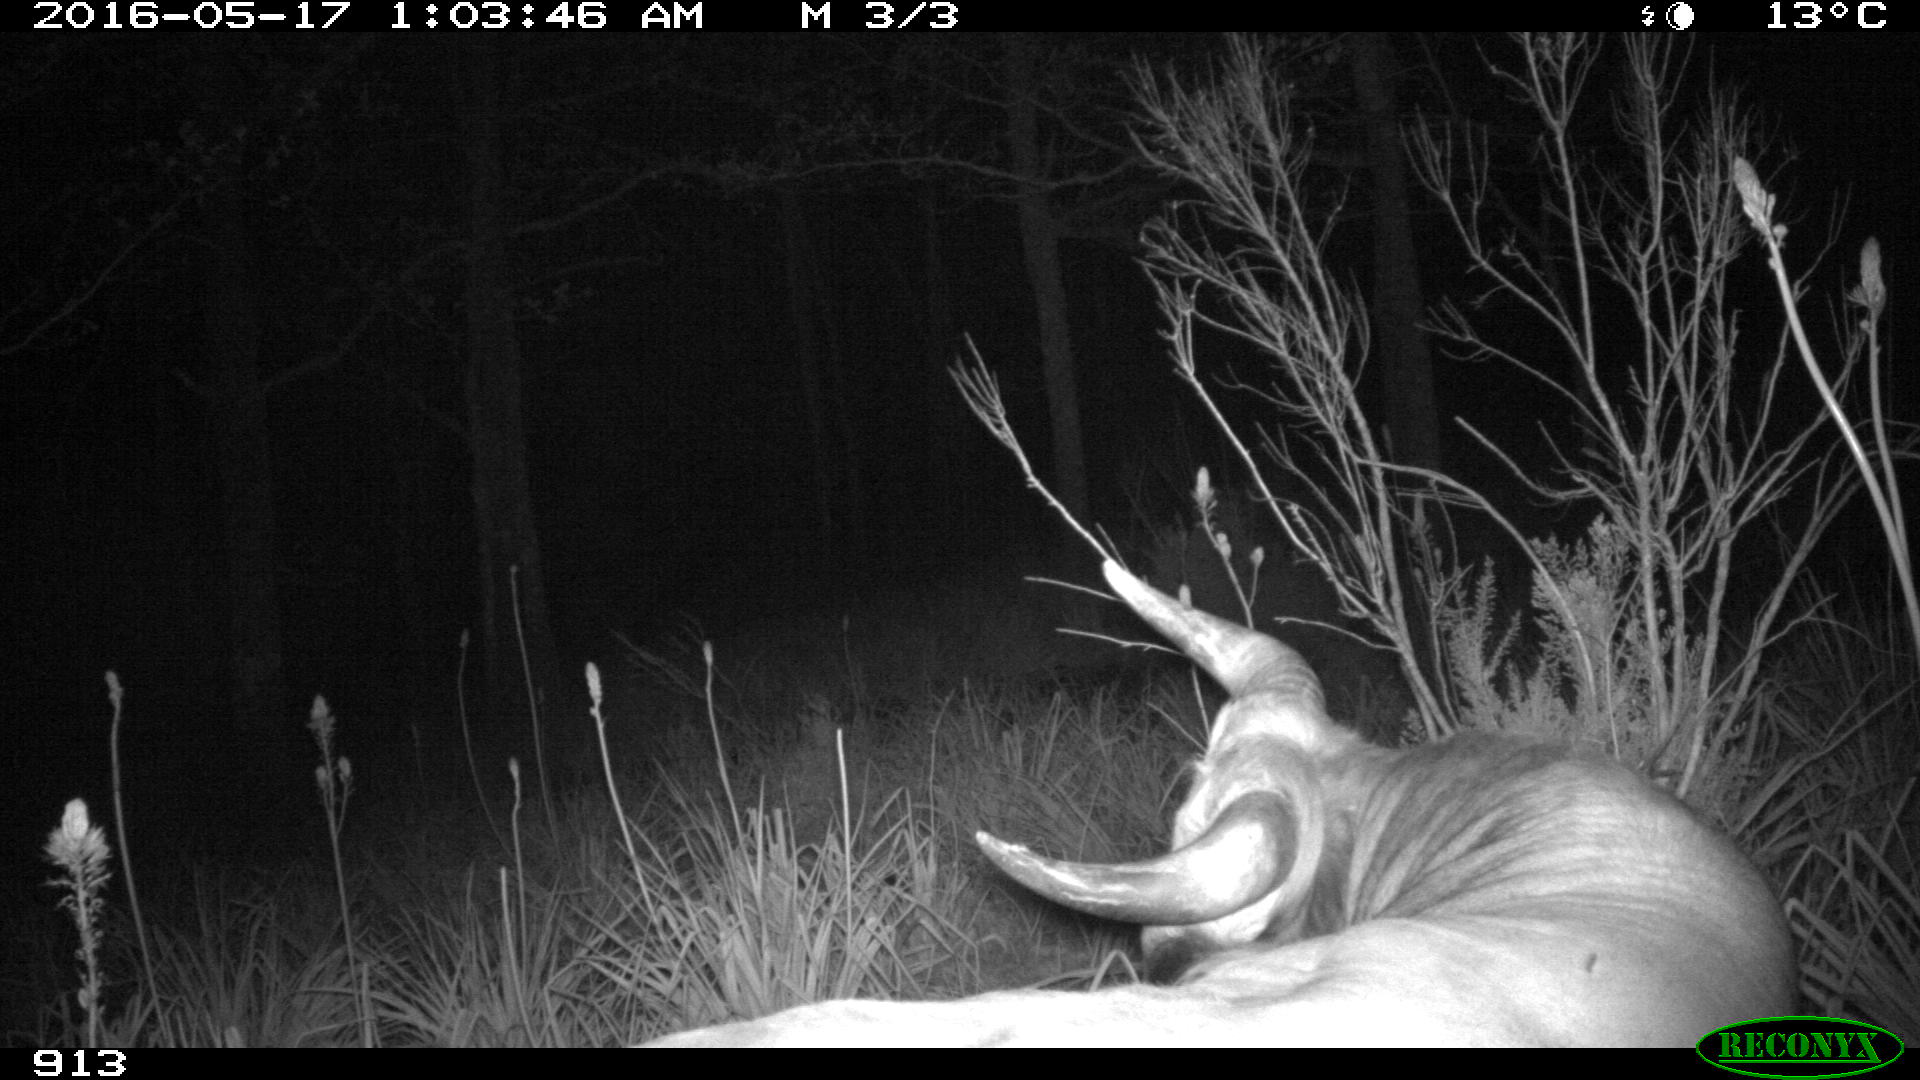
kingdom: Animalia
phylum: Chordata
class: Mammalia
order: Artiodactyla
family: Bovidae
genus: Bos
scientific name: Bos taurus
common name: Domesticated cattle
